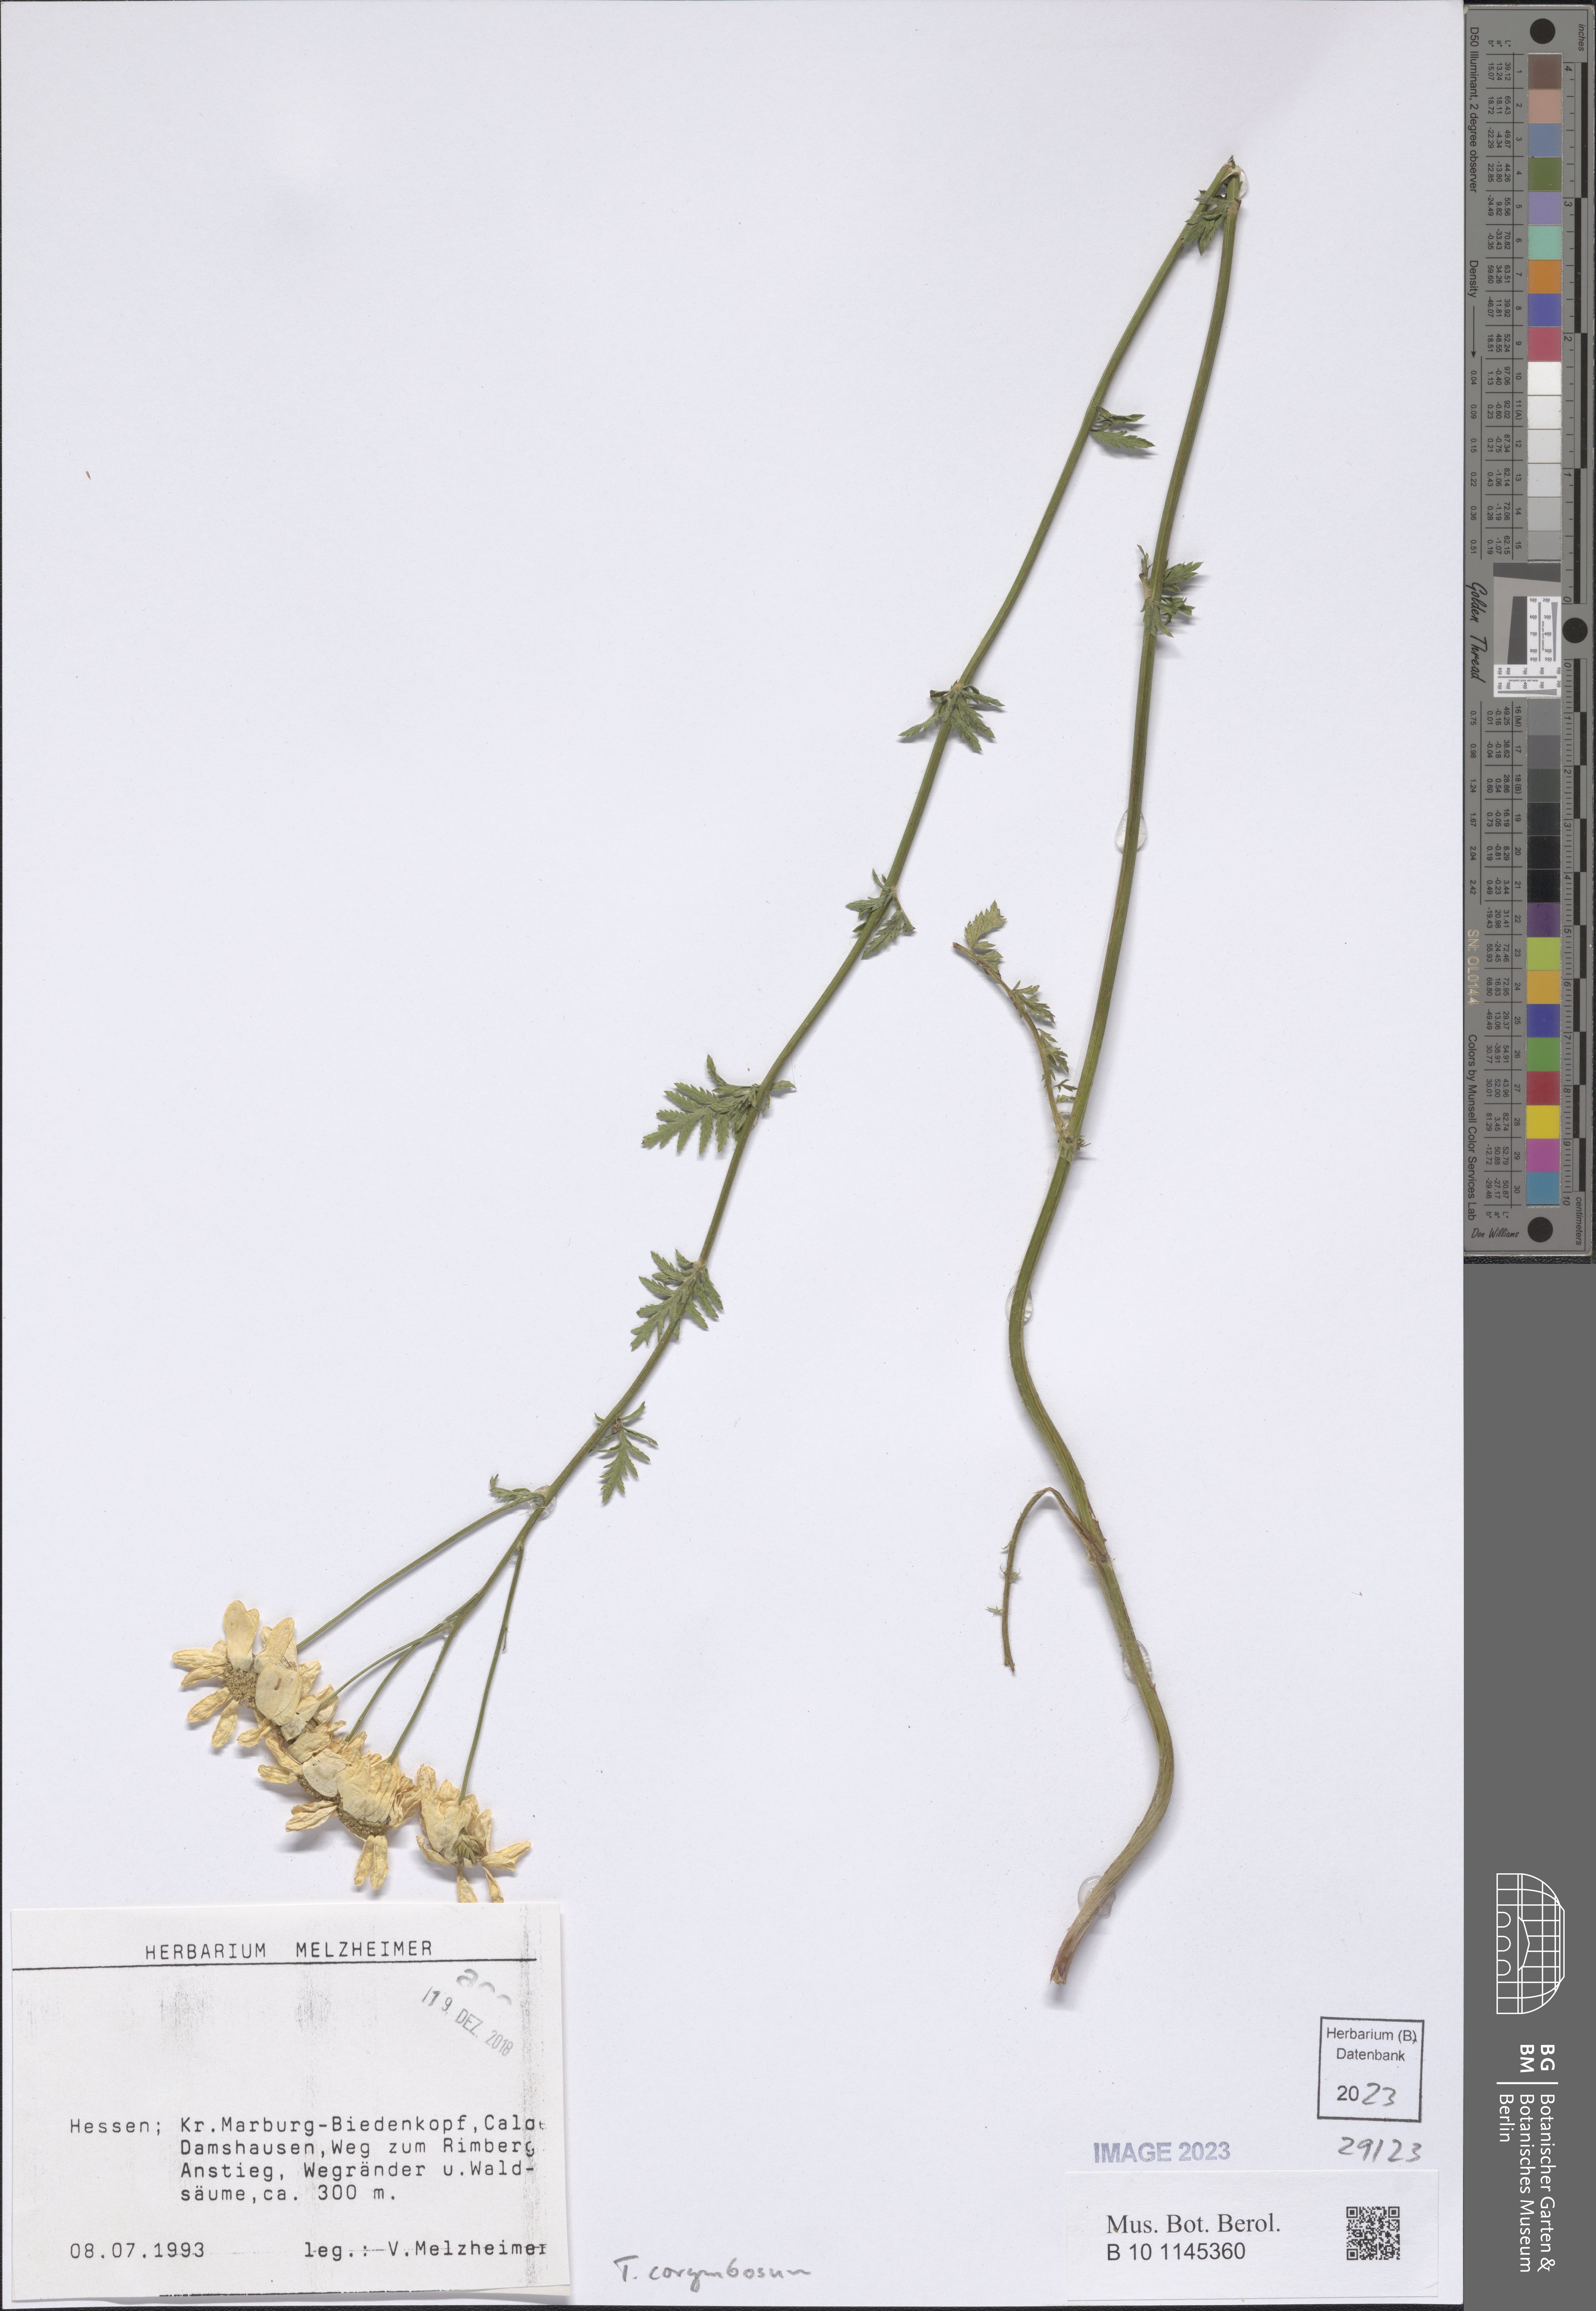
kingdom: Plantae
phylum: Tracheophyta
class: Magnoliopsida
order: Asterales
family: Asteraceae
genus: Tanacetum
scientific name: Tanacetum corymbosum
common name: Scentless feverfew
